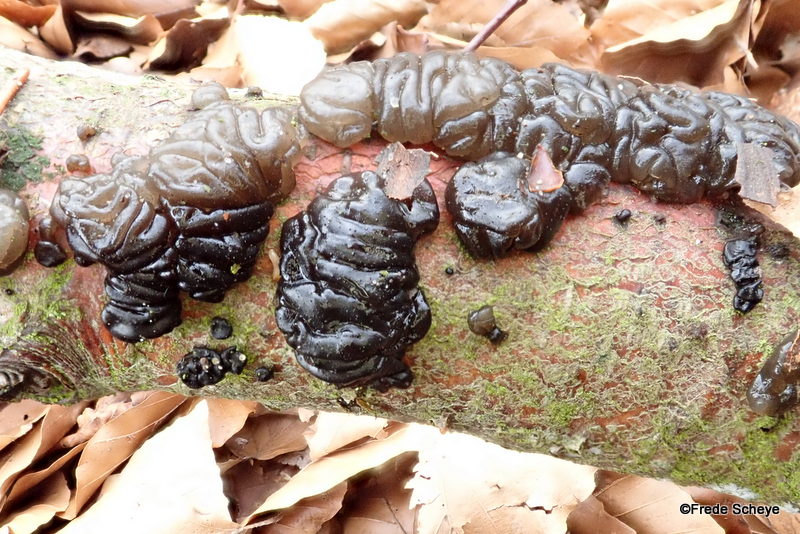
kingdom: Fungi
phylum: Basidiomycota
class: Agaricomycetes
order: Auriculariales
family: Auriculariaceae
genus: Exidia
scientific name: Exidia nigricans
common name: almindelig bævretop
